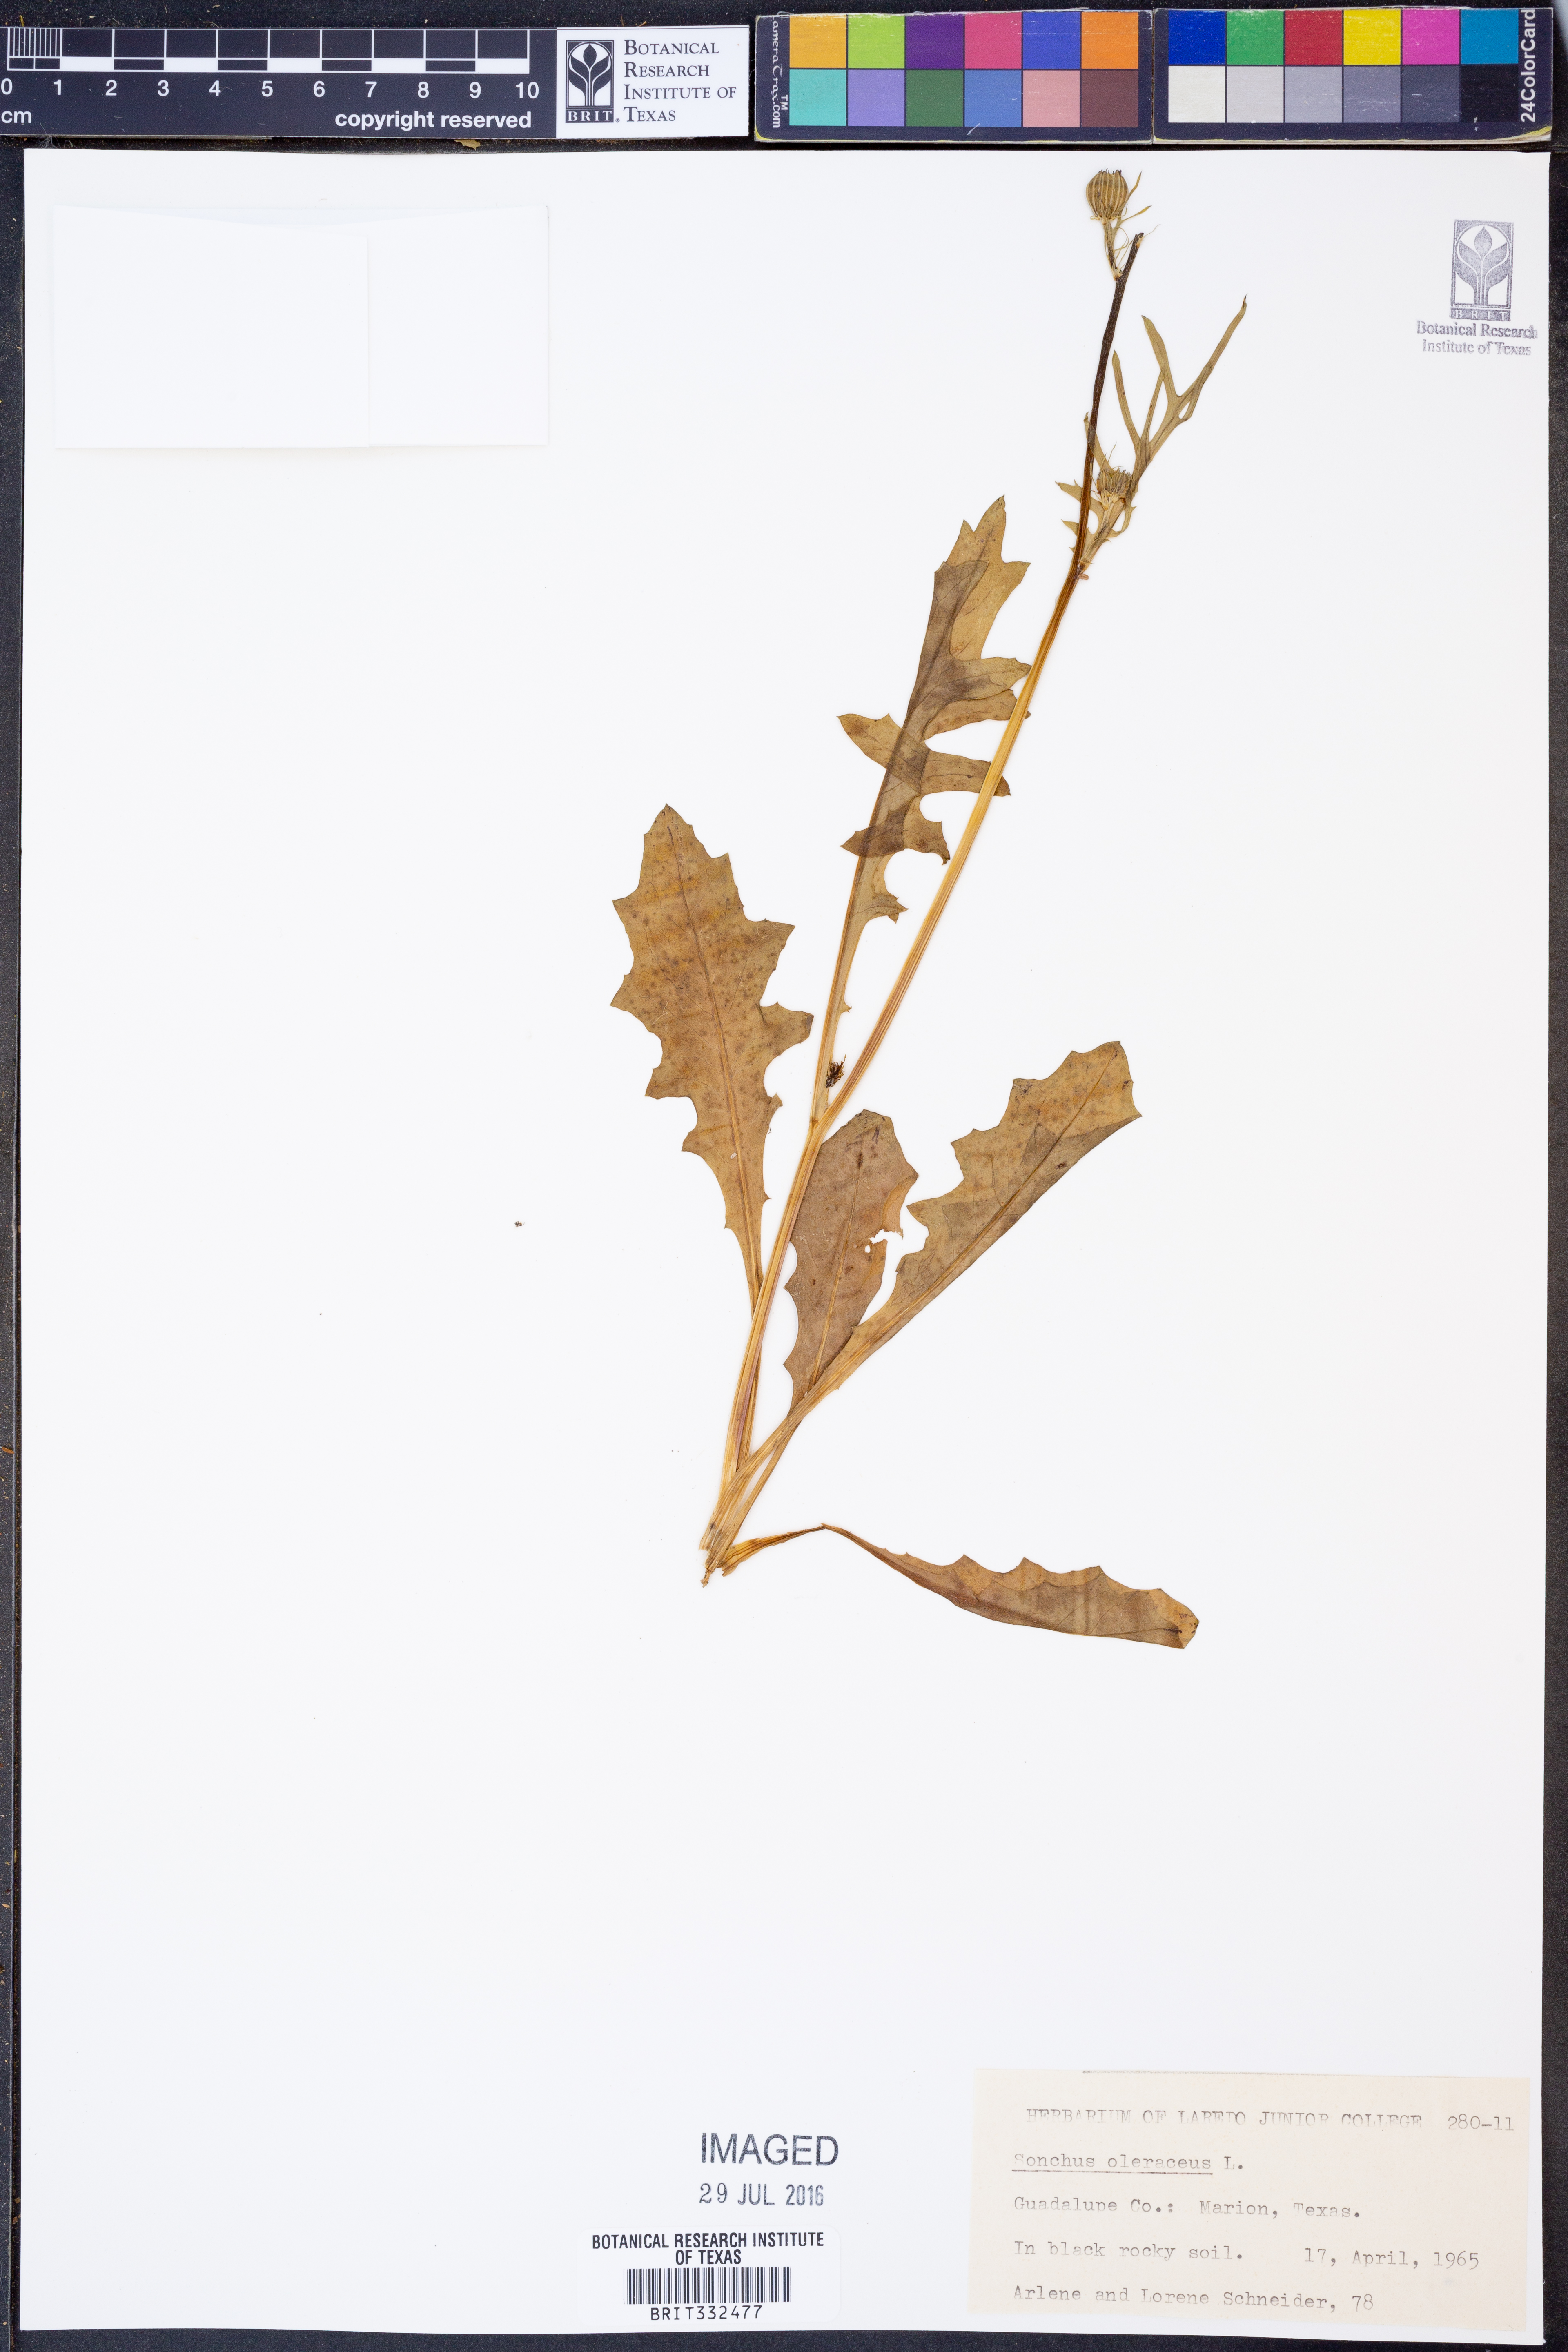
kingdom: Plantae
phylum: Tracheophyta
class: Magnoliopsida
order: Asterales
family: Asteraceae
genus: Sonchus
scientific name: Sonchus oleraceus
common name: Common sowthistle
